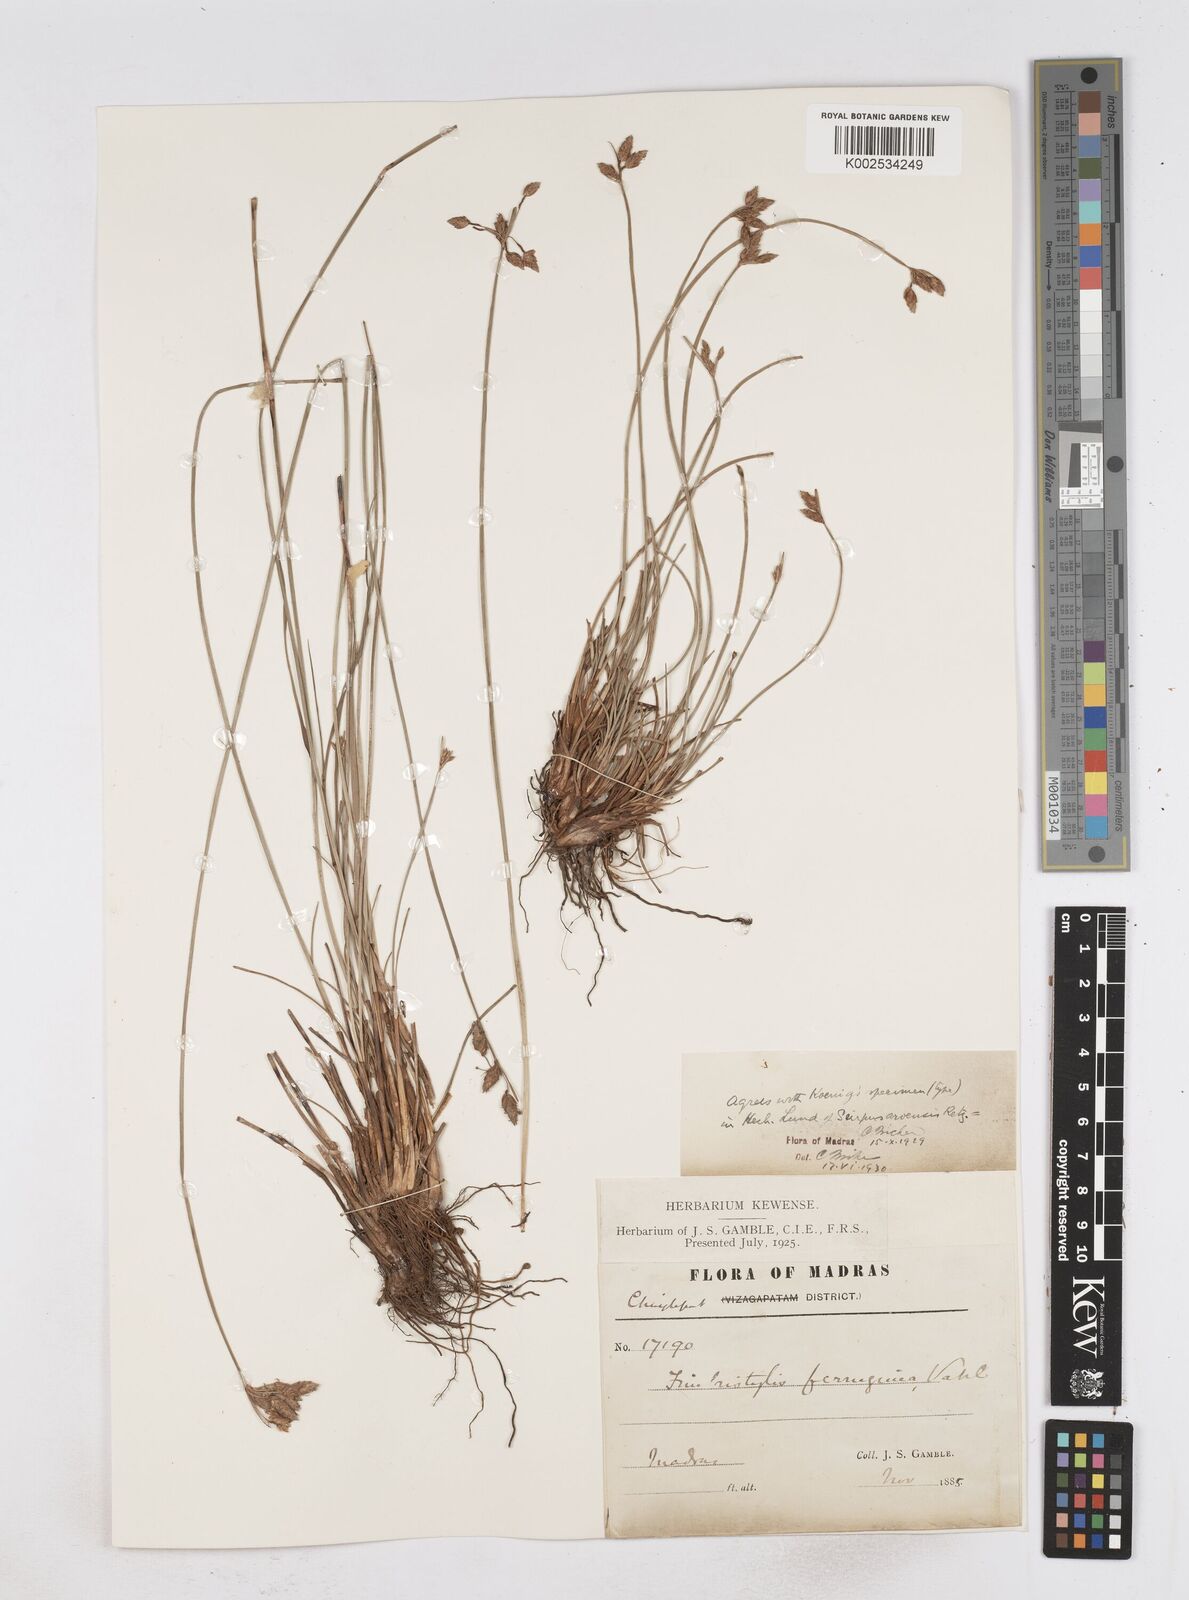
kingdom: Plantae
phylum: Tracheophyta
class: Liliopsida
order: Poales
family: Cyperaceae
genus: Fimbristylis
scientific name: Fimbristylis ferruginea
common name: West indian fimbry
